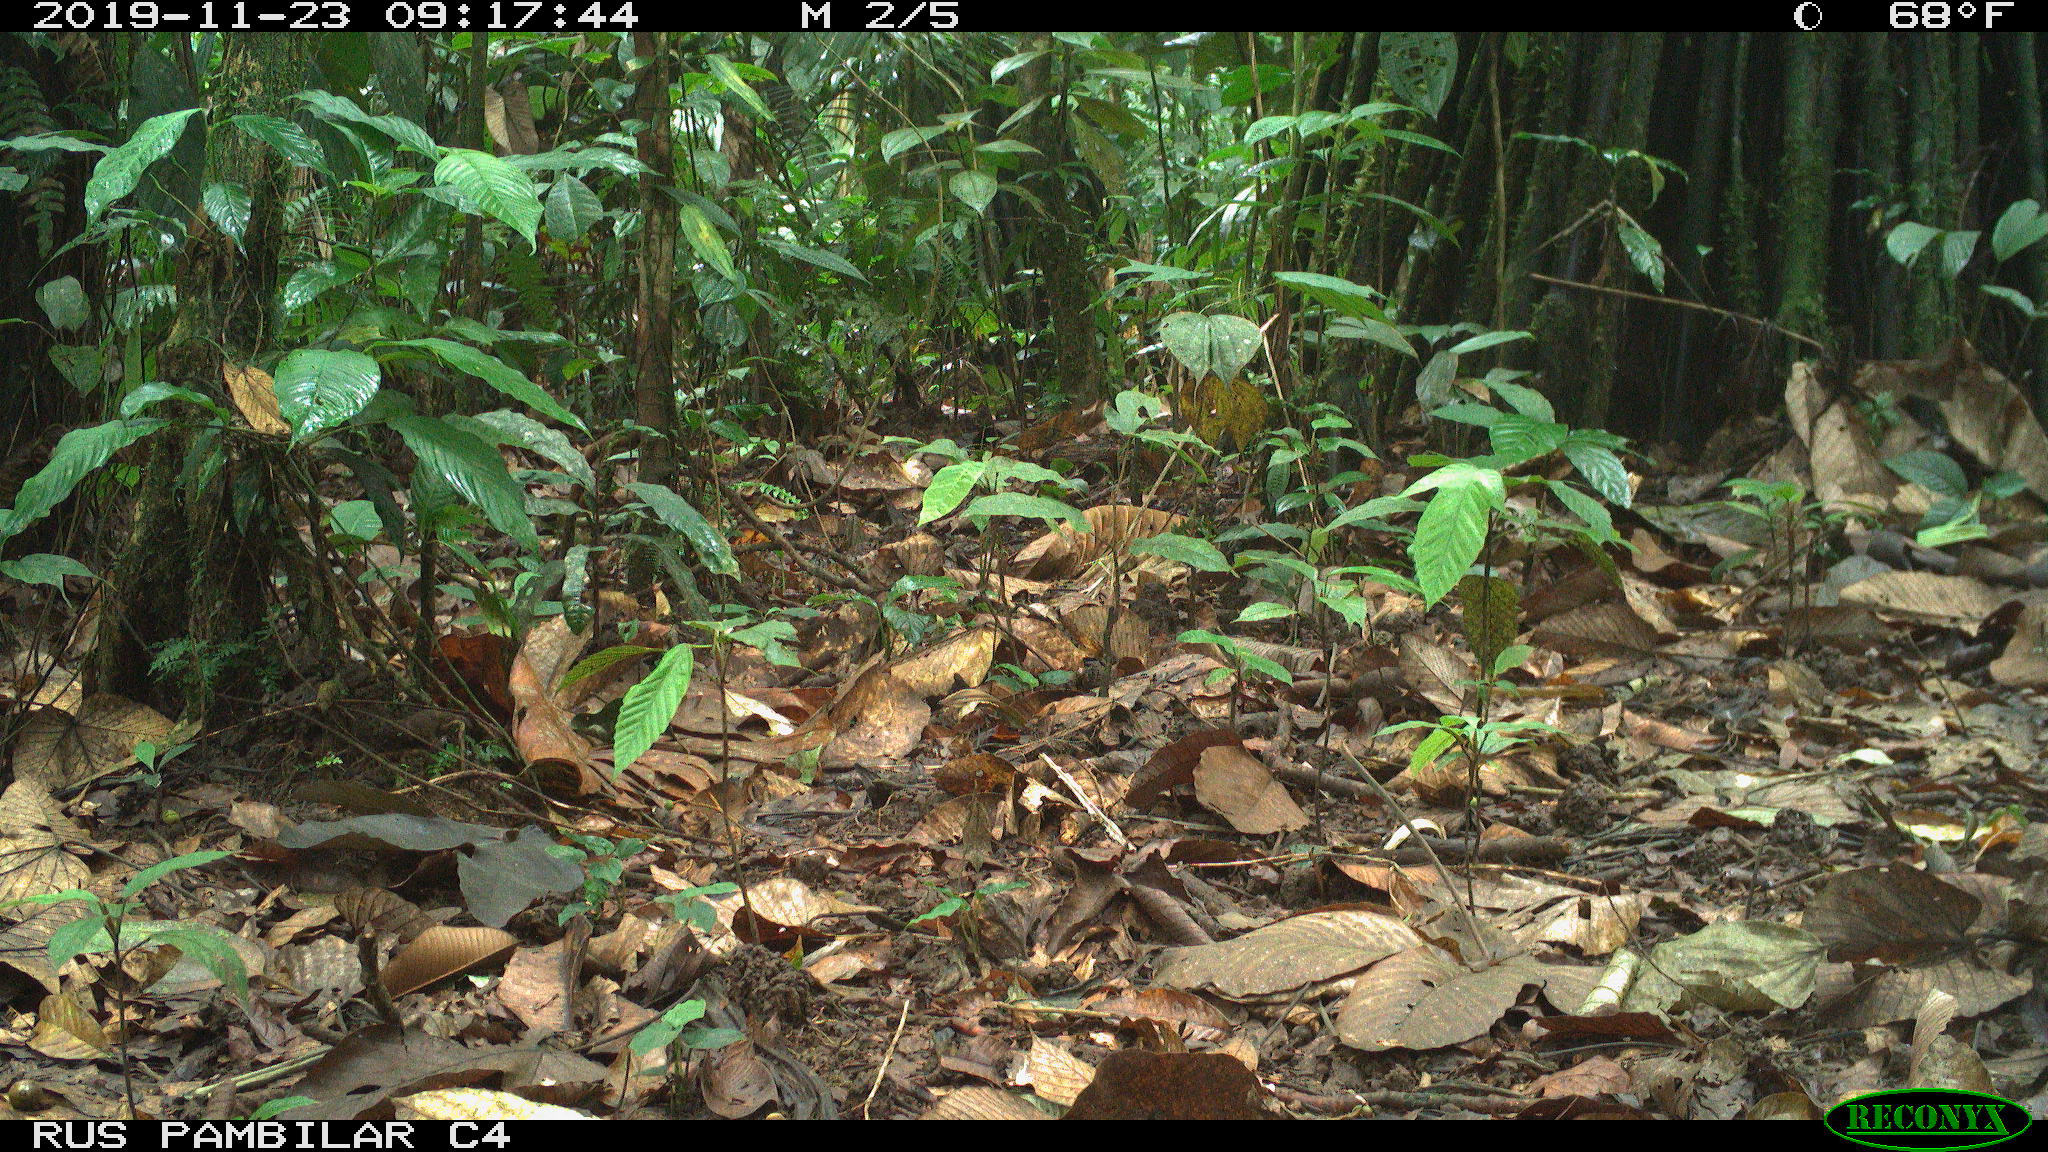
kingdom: Animalia
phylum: Chordata
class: Mammalia
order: Rodentia
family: Dasyproctidae
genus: Dasyprocta
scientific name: Dasyprocta punctata
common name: Central american agouti
